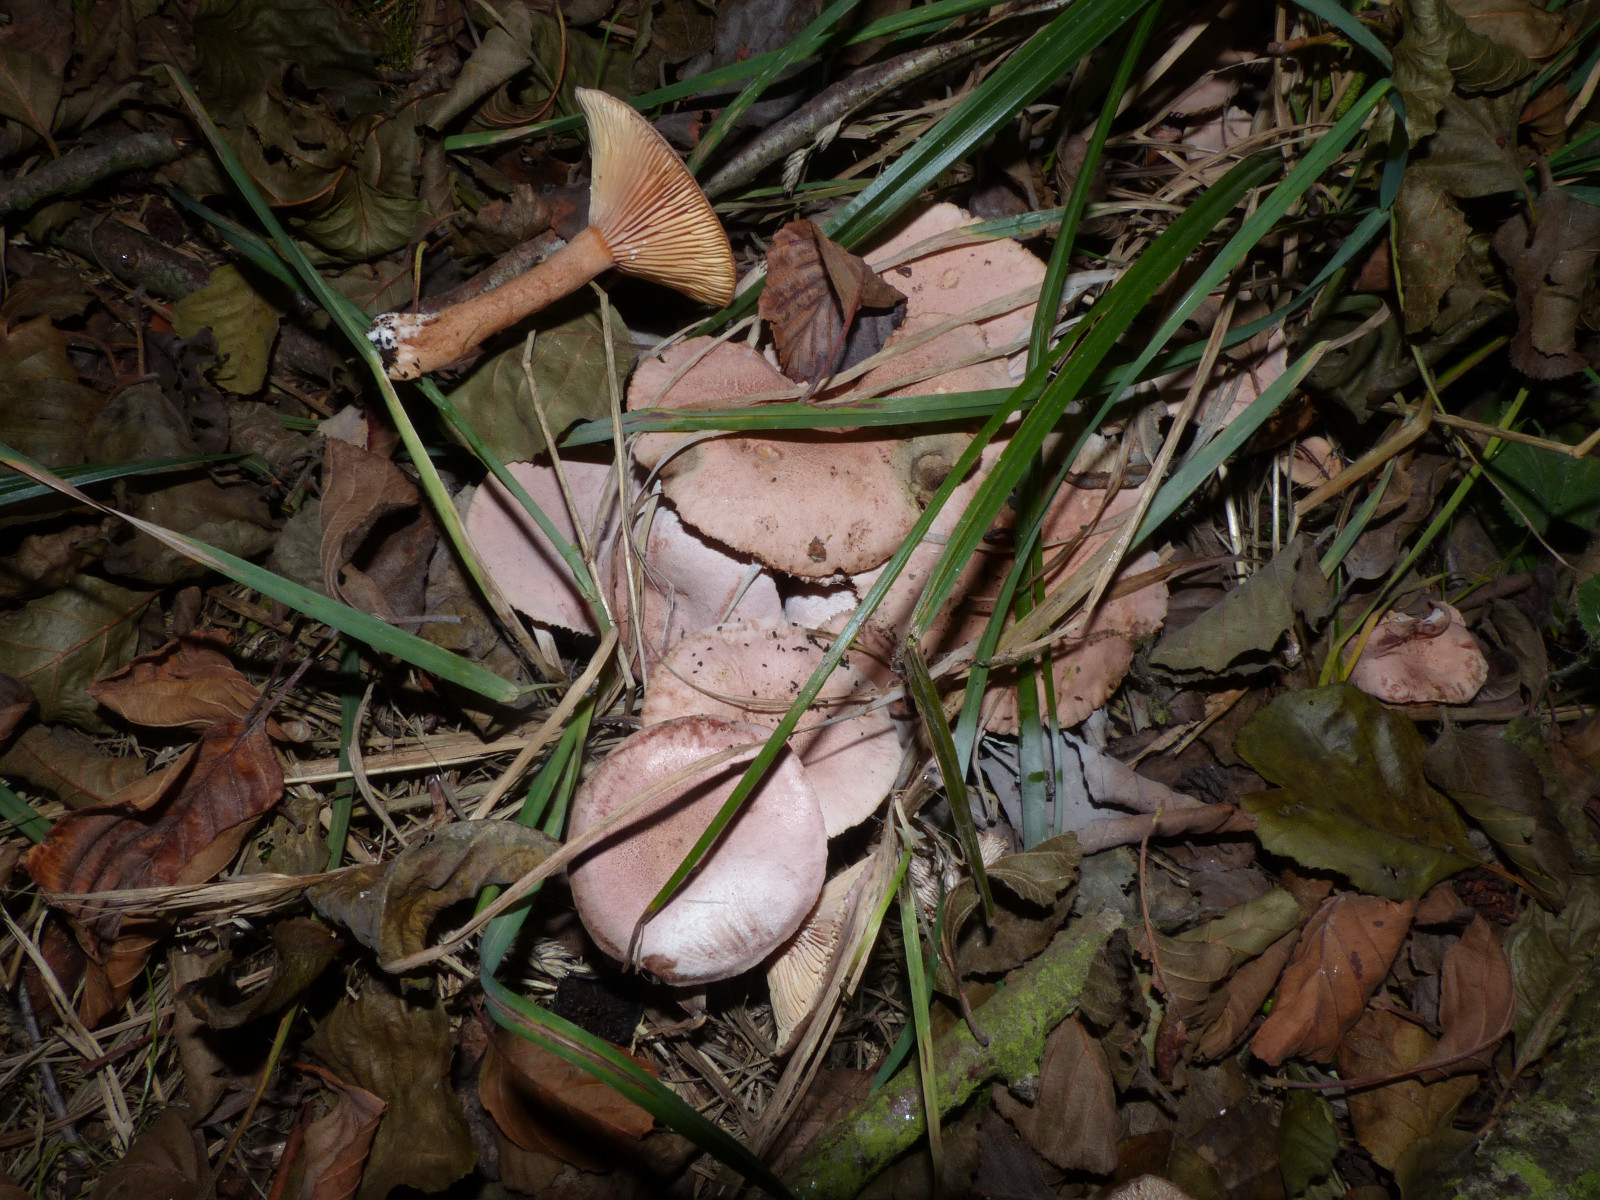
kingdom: Fungi
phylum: Basidiomycota
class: Agaricomycetes
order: Russulales
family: Russulaceae
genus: Lactarius
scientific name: Lactarius lilacinus
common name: lilla mælkehat
